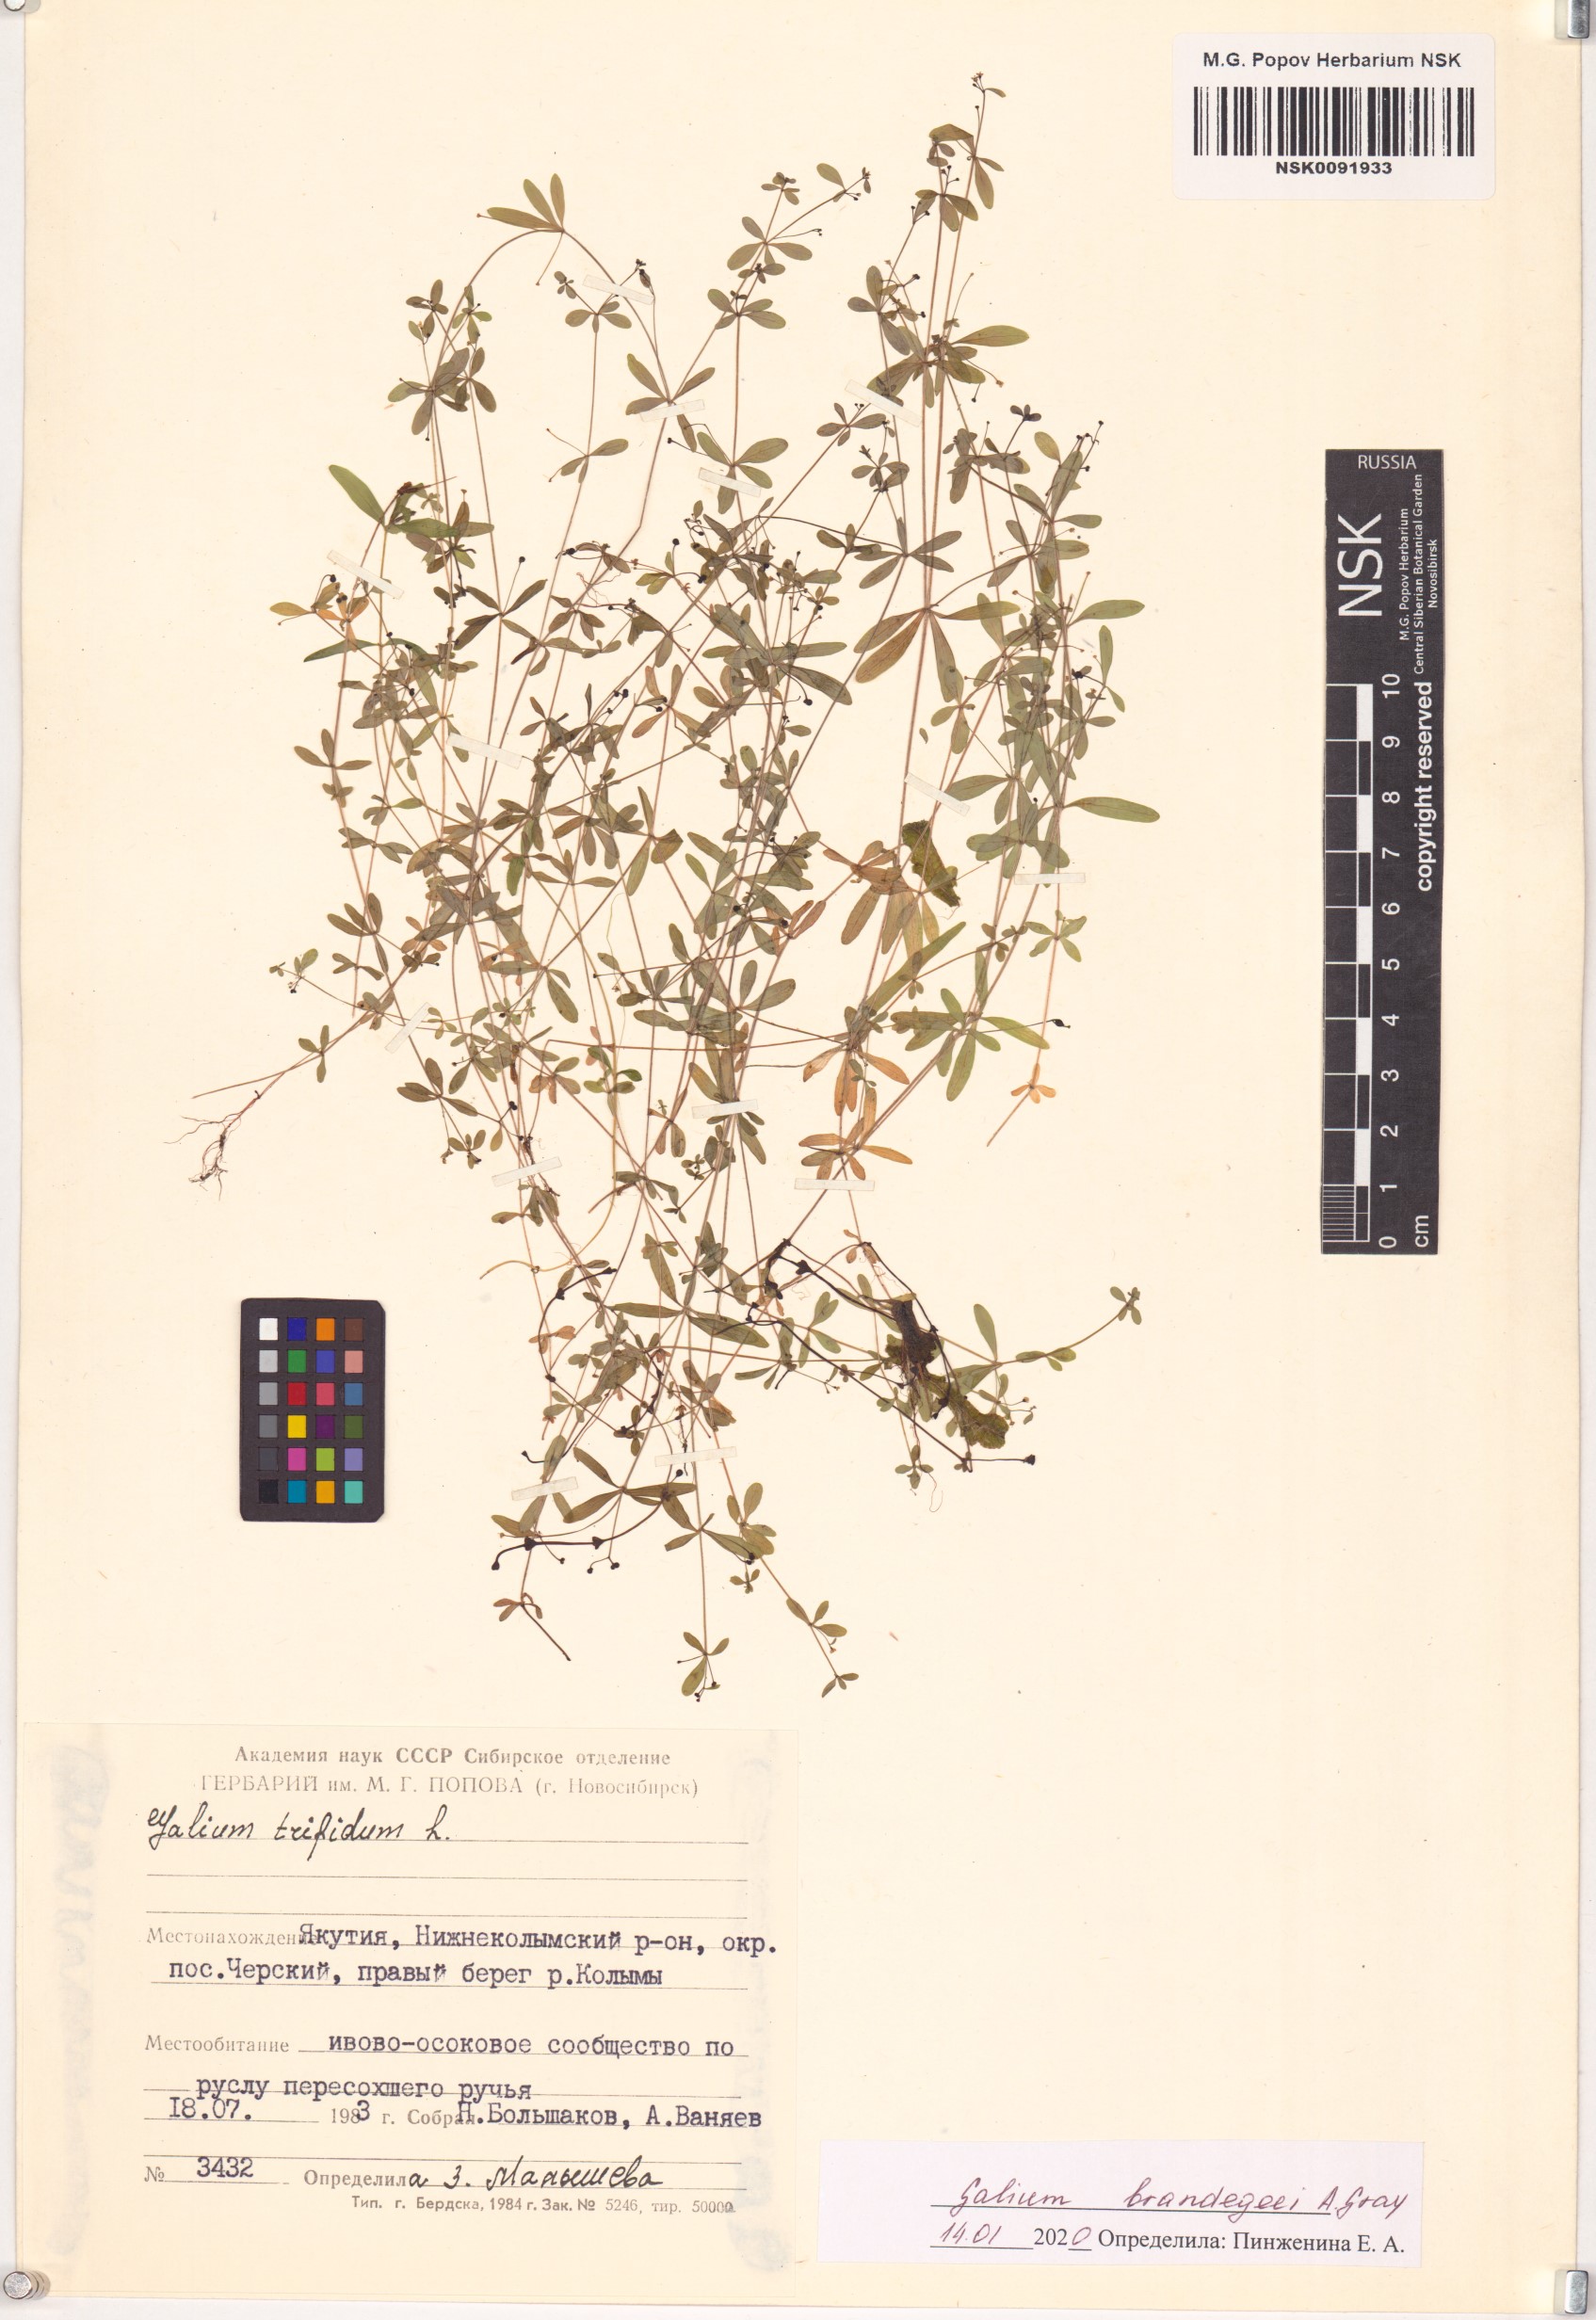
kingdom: Plantae
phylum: Tracheophyta
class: Magnoliopsida
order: Gentianales
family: Rubiaceae
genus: Galium
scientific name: Galium trifidum
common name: Small bedstraw
